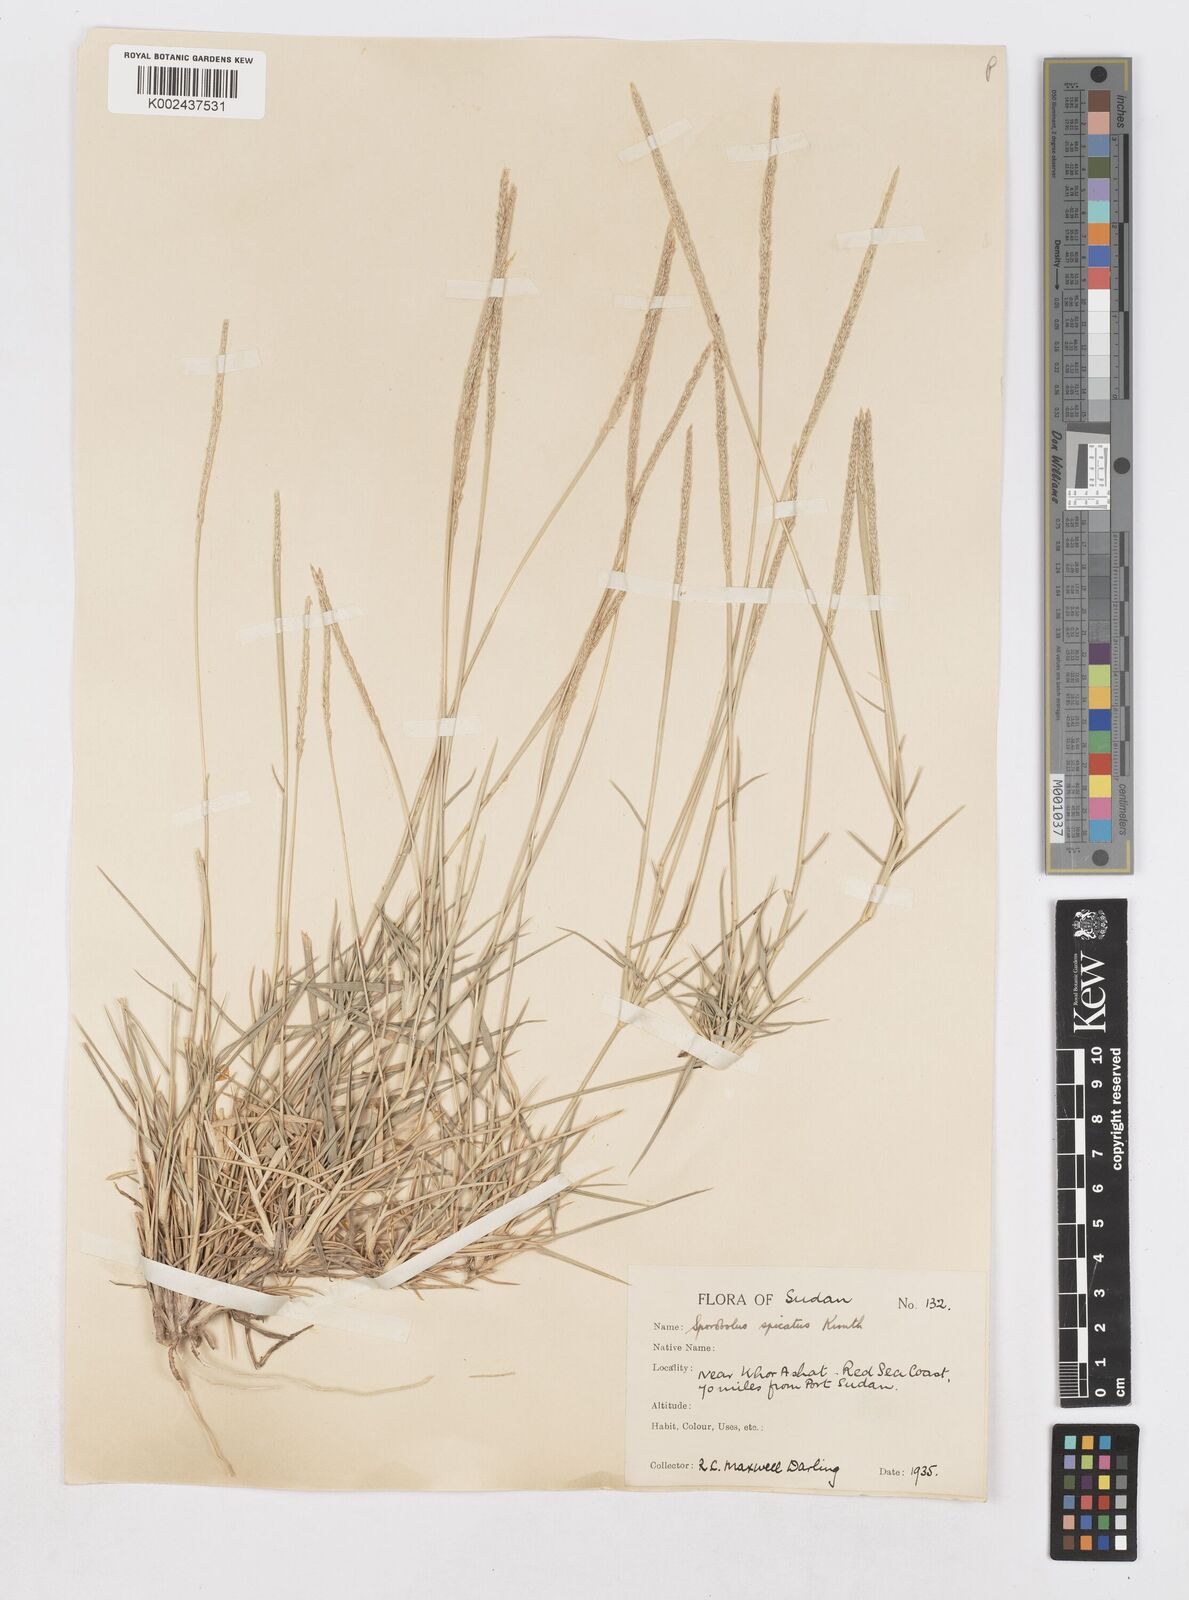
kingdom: Plantae
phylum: Tracheophyta
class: Liliopsida
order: Poales
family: Poaceae
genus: Sporobolus
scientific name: Sporobolus spicatus
